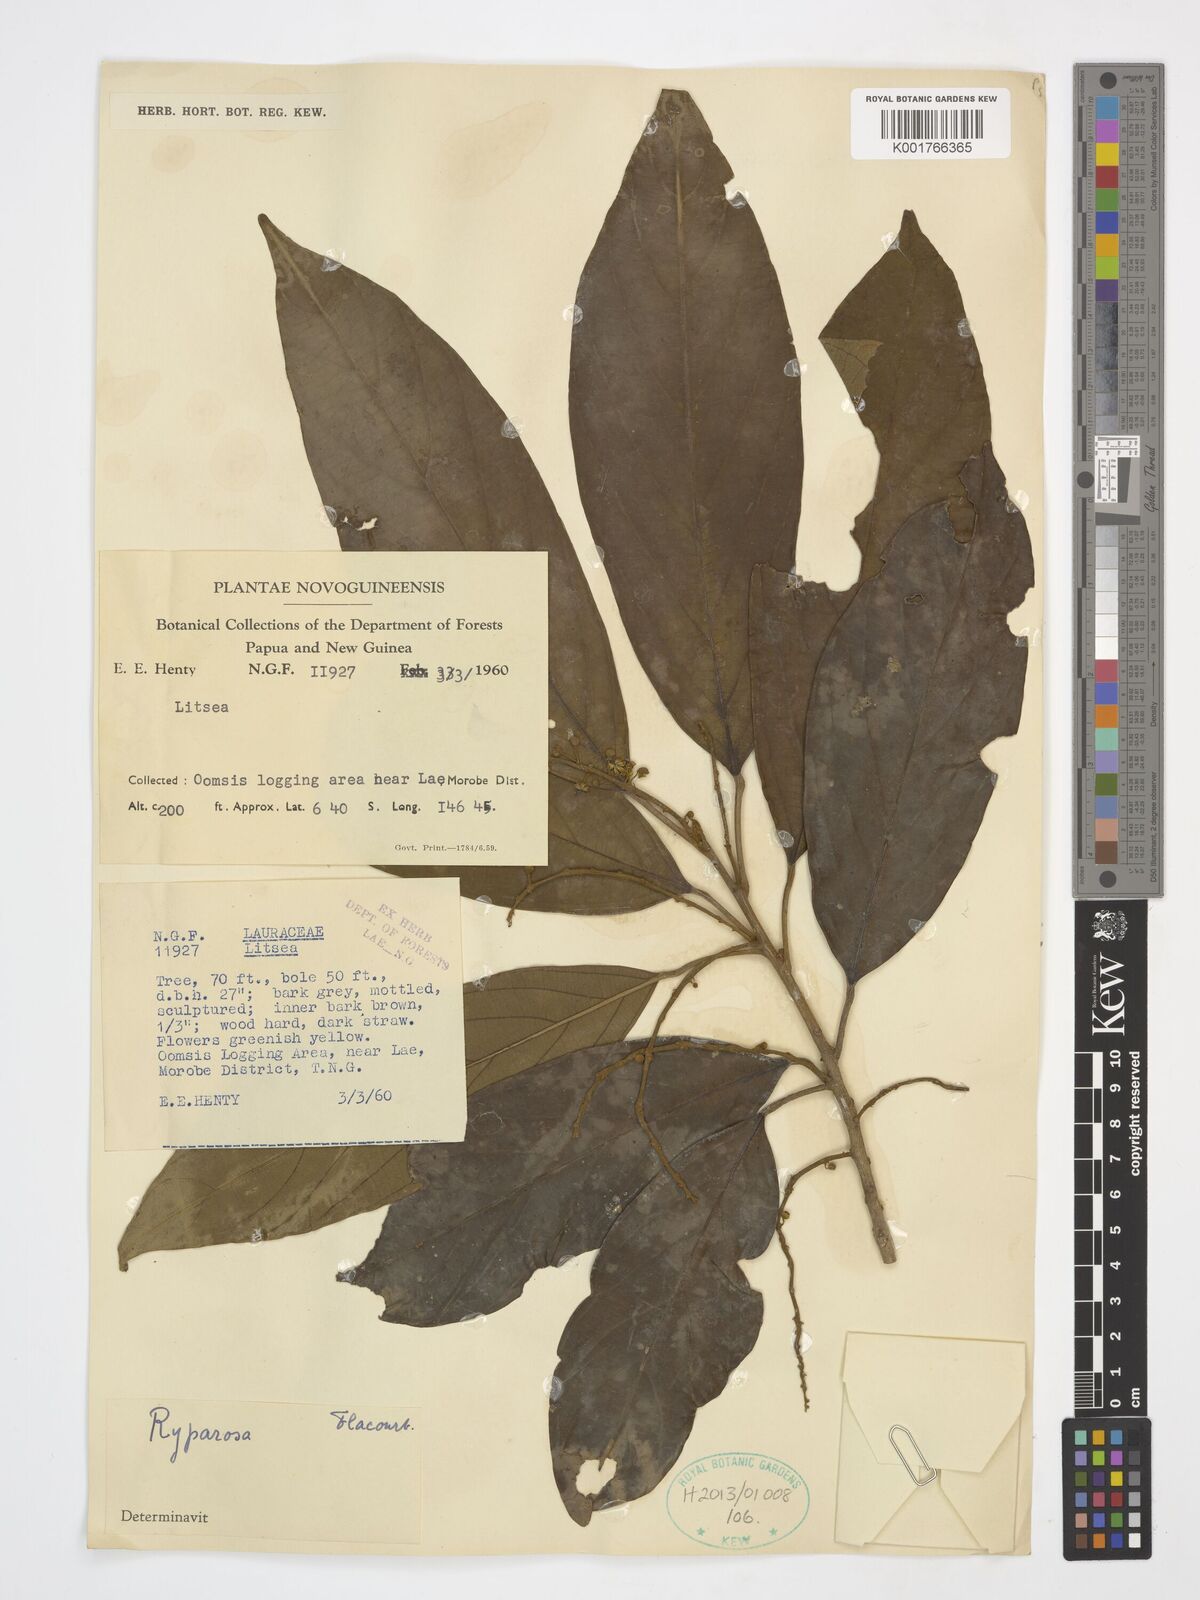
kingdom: Plantae
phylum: Tracheophyta
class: Magnoliopsida
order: Malpighiales
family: Achariaceae
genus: Ryparosa
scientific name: Ryparosa
